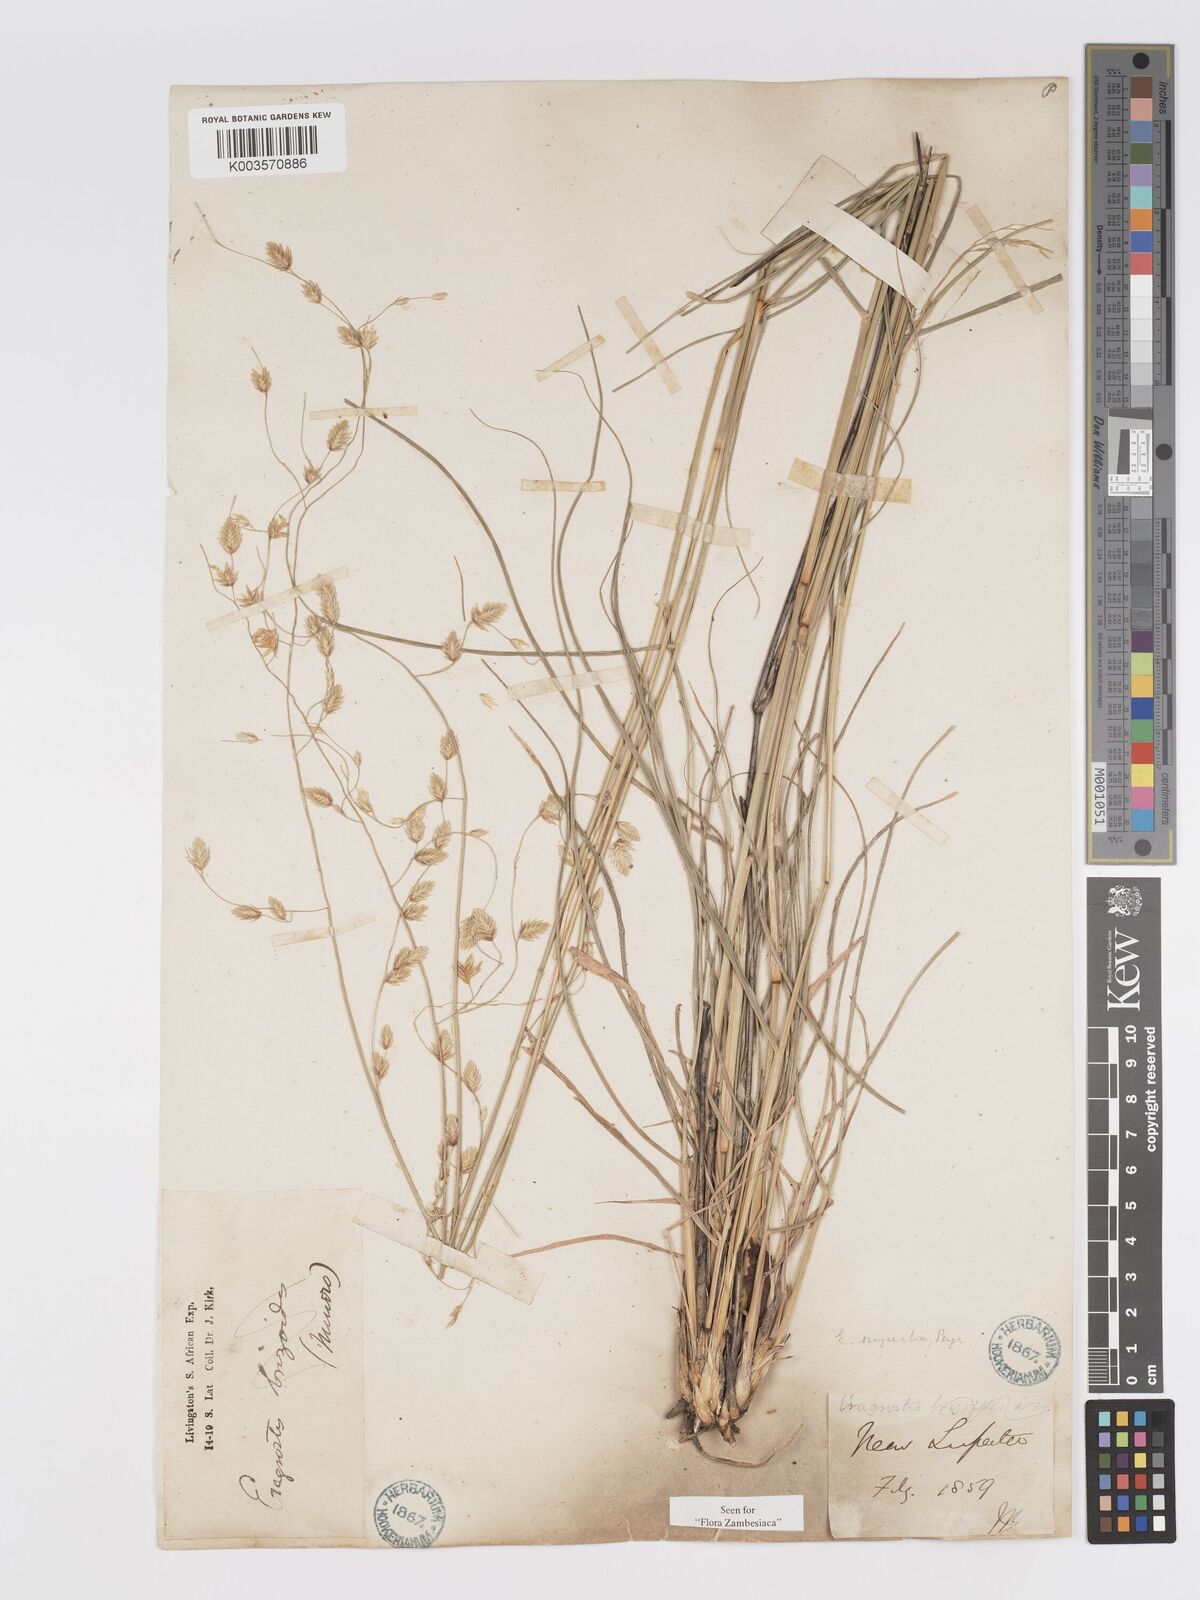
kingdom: Plantae
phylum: Tracheophyta
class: Liliopsida
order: Poales
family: Poaceae
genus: Eragrostis
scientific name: Eragrostis superba
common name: Wilman lovegrass
